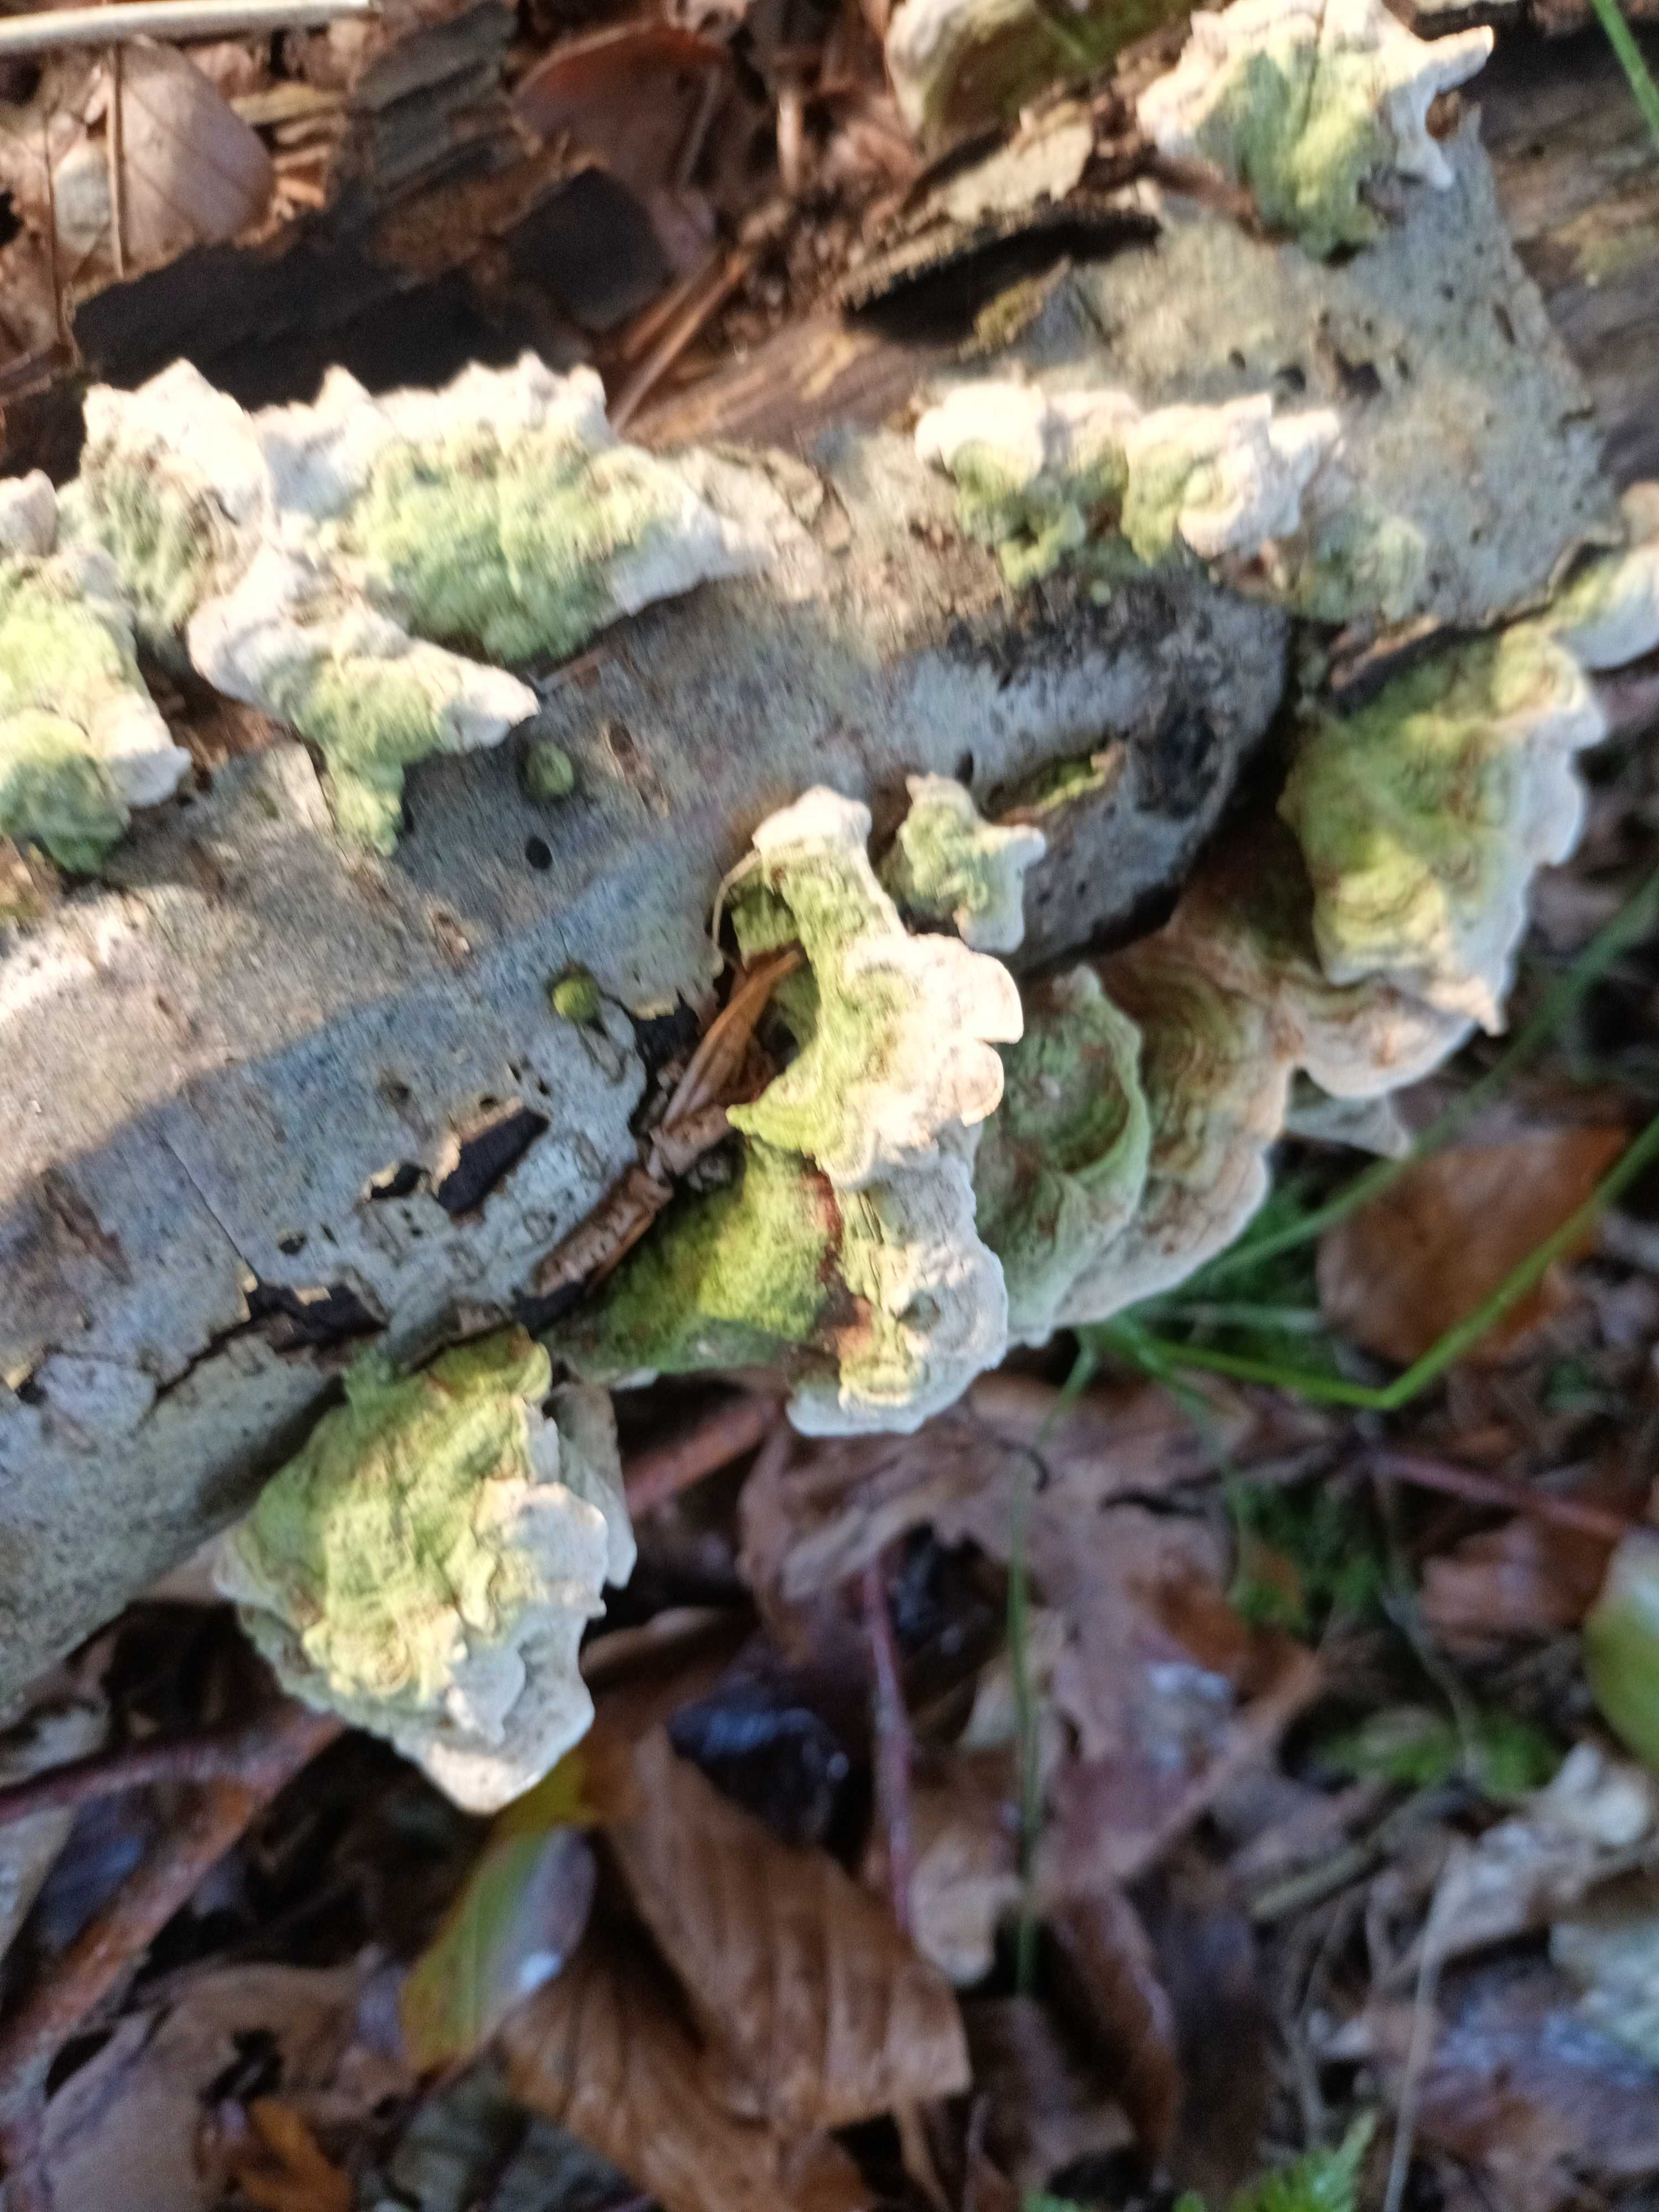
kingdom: Fungi
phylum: Basidiomycota
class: Agaricomycetes
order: Russulales
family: Stereaceae
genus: Stereum
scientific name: Stereum subtomentosum
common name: smuk lædersvamp
